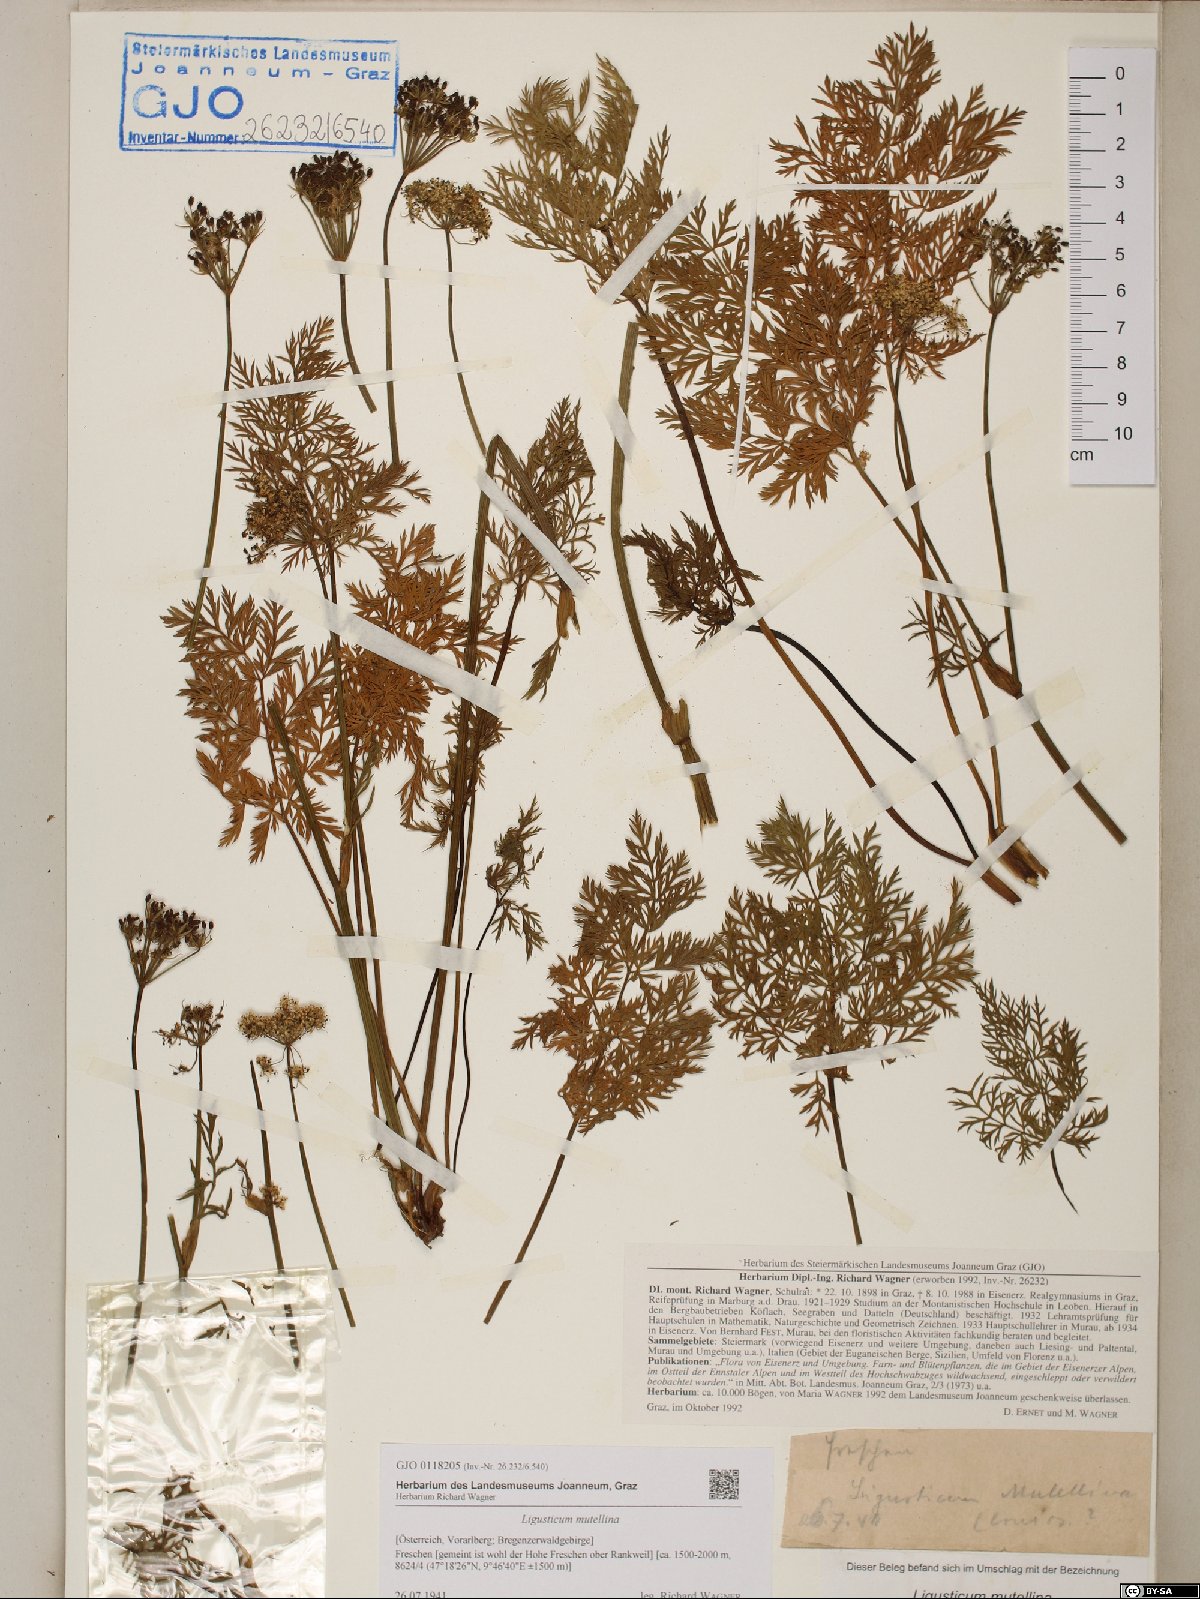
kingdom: Plantae
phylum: Tracheophyta
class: Magnoliopsida
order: Apiales
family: Apiaceae
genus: Mutellina
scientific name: Mutellina adonidifolia
